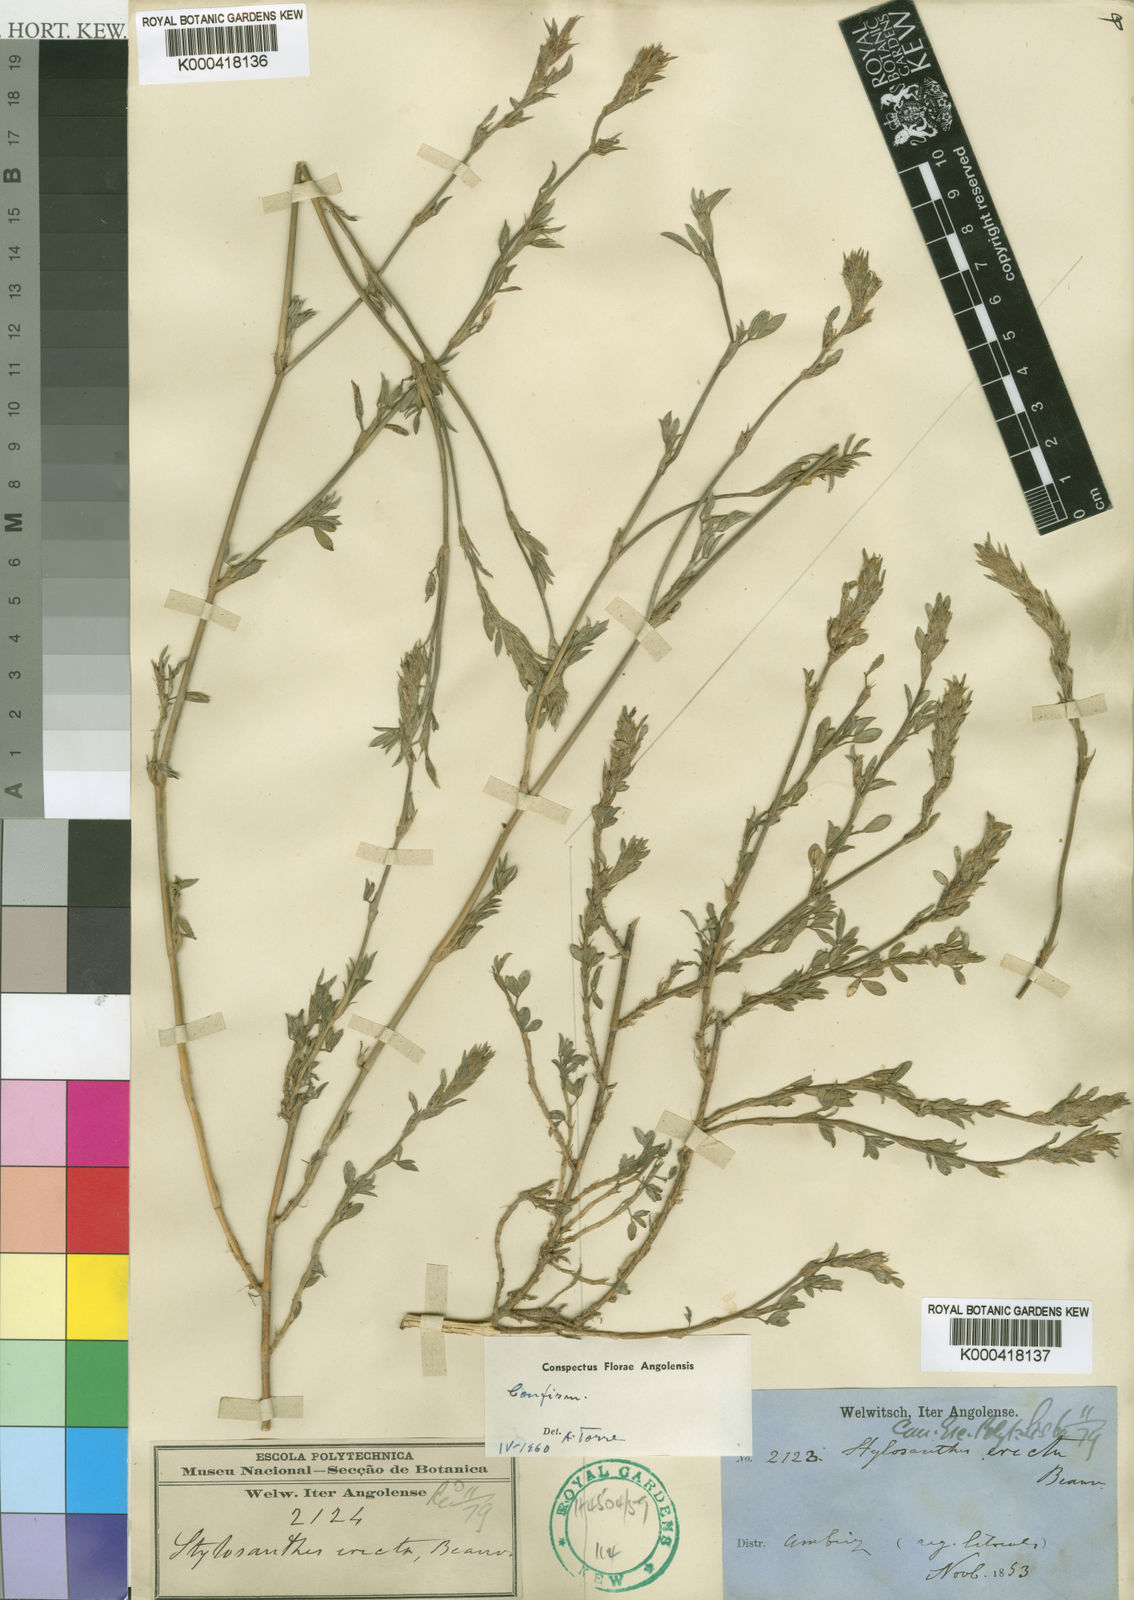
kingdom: Plantae
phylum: Tracheophyta
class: Magnoliopsida
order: Fabales
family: Fabaceae
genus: Stylosanthes
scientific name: Stylosanthes erecta
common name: Nigerian stylo
